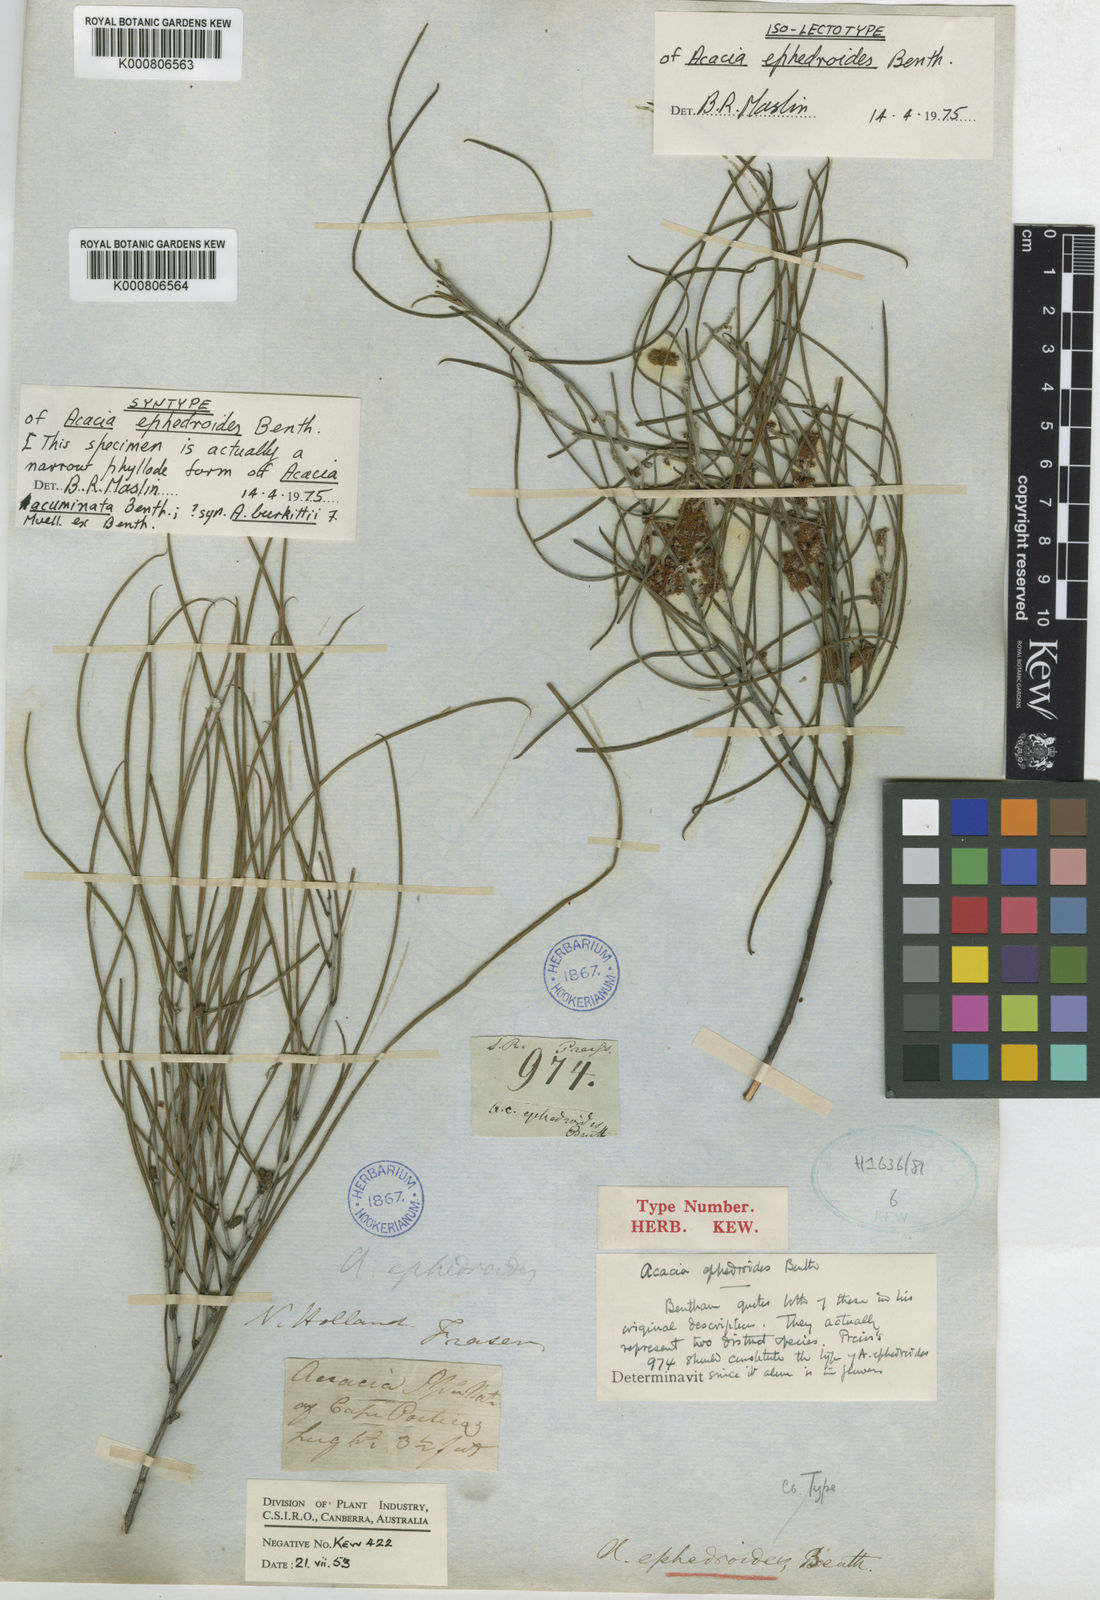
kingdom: Plantae
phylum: Tracheophyta
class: Magnoliopsida
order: Fabales
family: Fabaceae
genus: Acacia
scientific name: Acacia ephedroides
